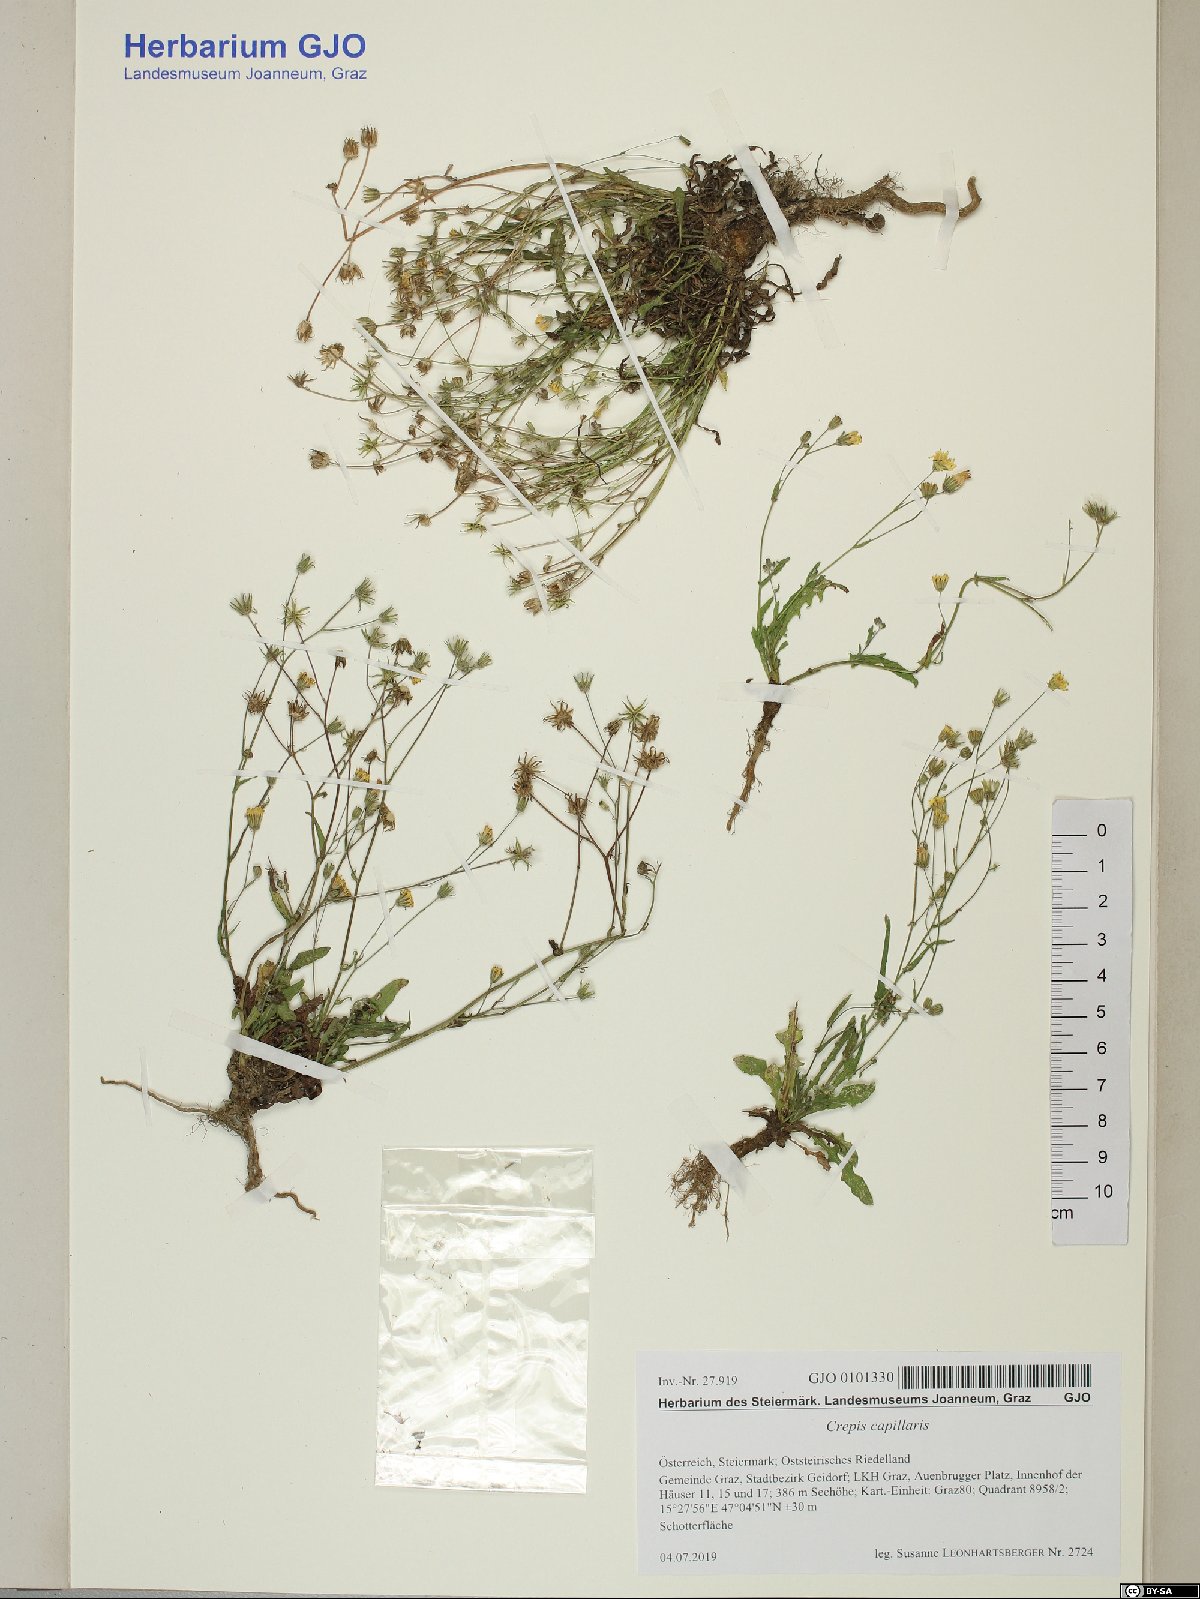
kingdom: Plantae
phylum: Tracheophyta
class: Magnoliopsida
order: Asterales
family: Asteraceae
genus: Crepis
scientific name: Crepis capillaris
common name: Smooth hawksbeard
